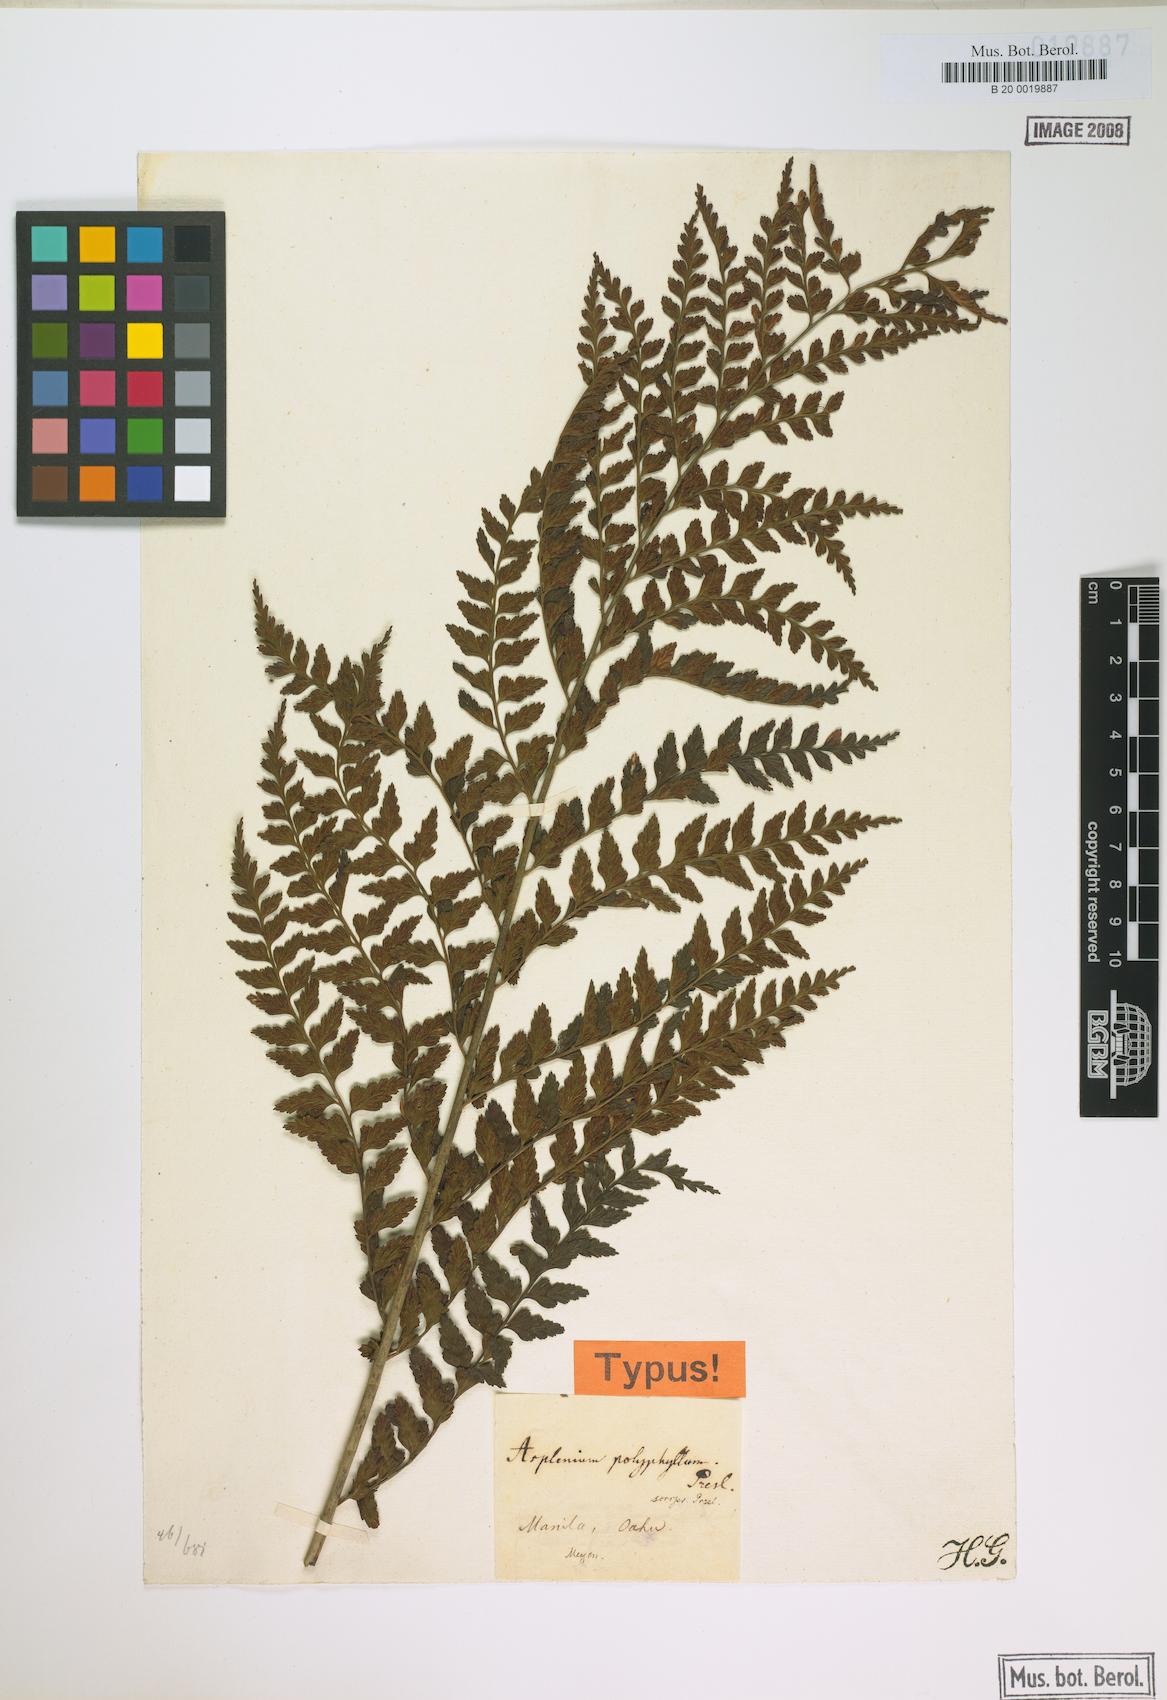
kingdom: Plantae
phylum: Tracheophyta
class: Polypodiopsida
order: Polypodiales
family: Aspleniaceae
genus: Asplenium
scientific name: Asplenium acuminatum
